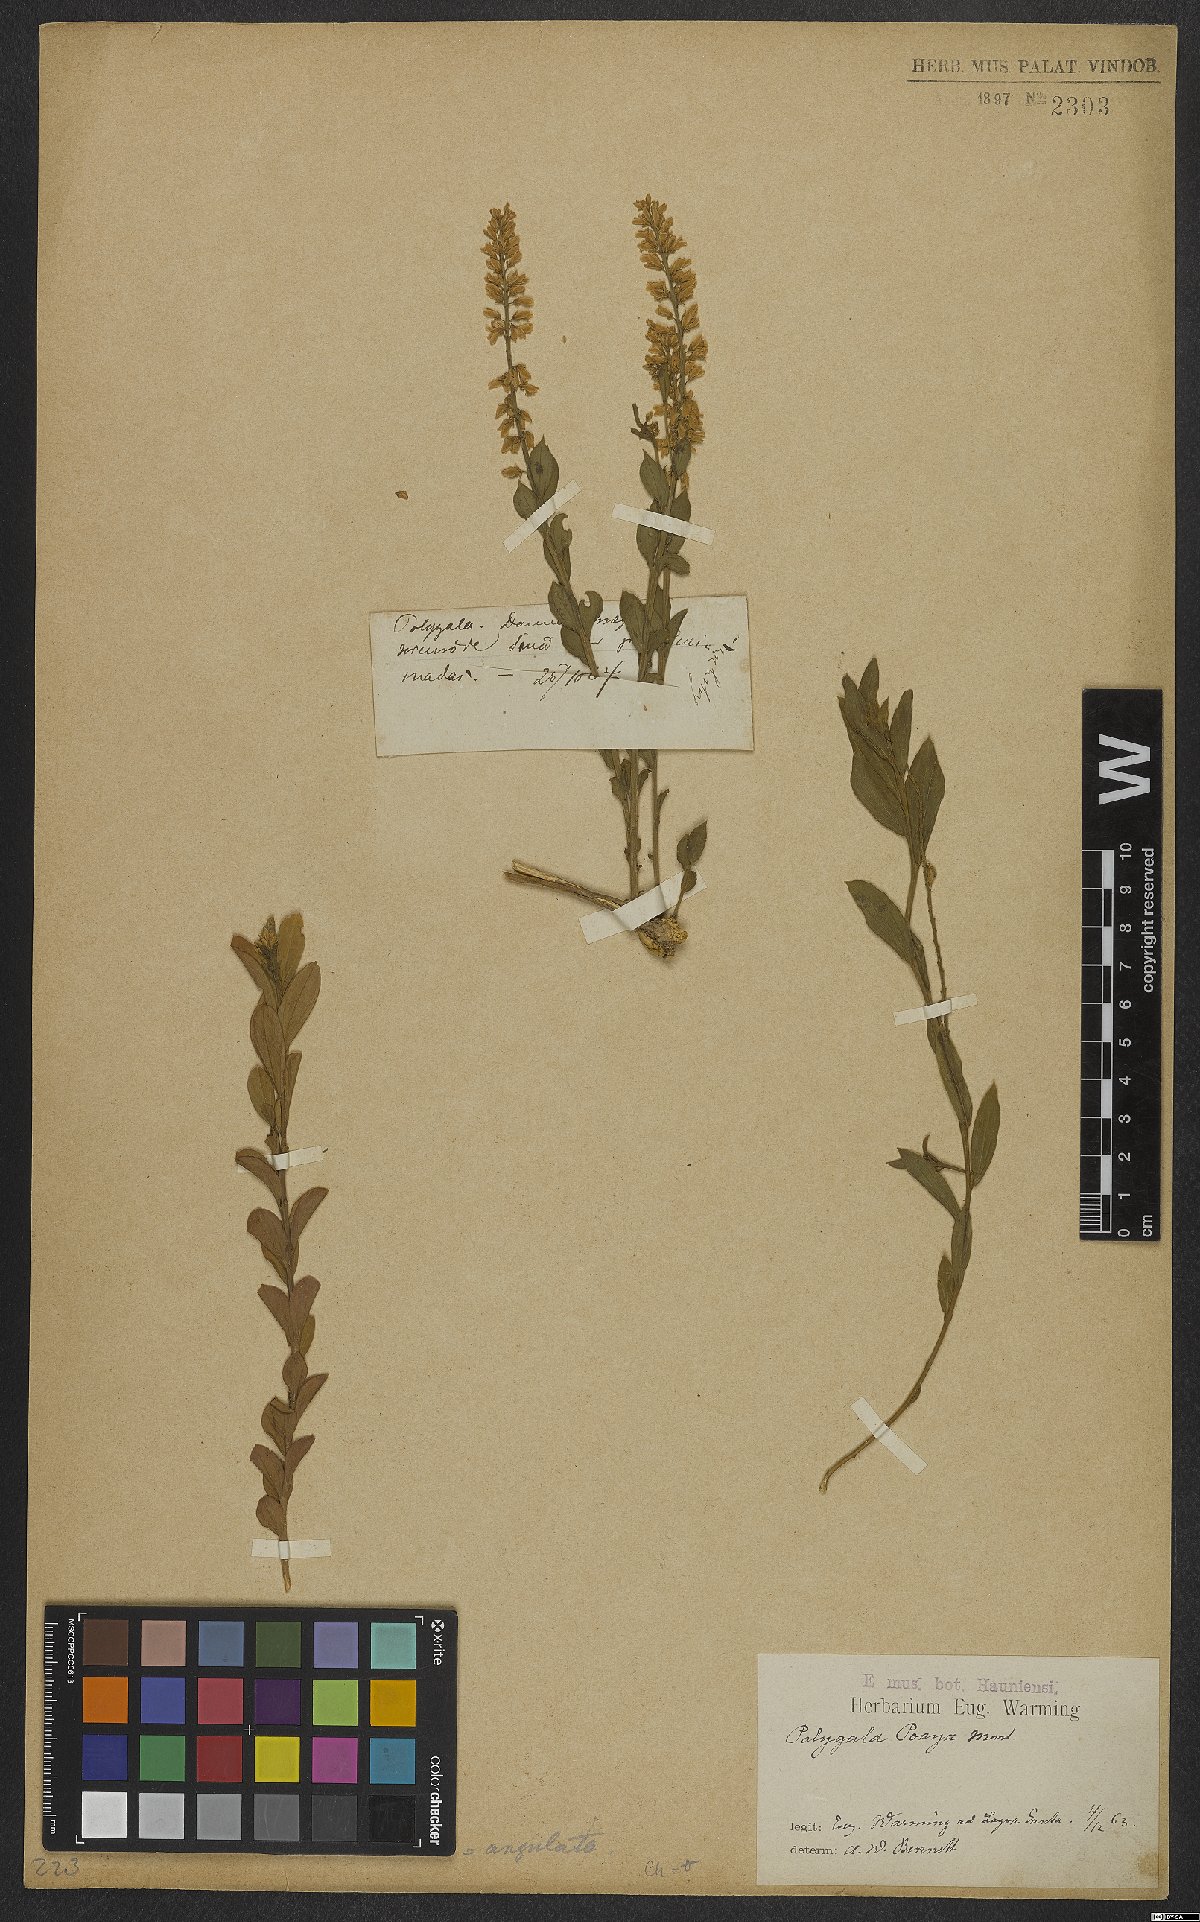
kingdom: Plantae
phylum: Tracheophyta
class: Magnoliopsida
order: Fabales
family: Polygalaceae
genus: Polygala
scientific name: Polygala poaya
